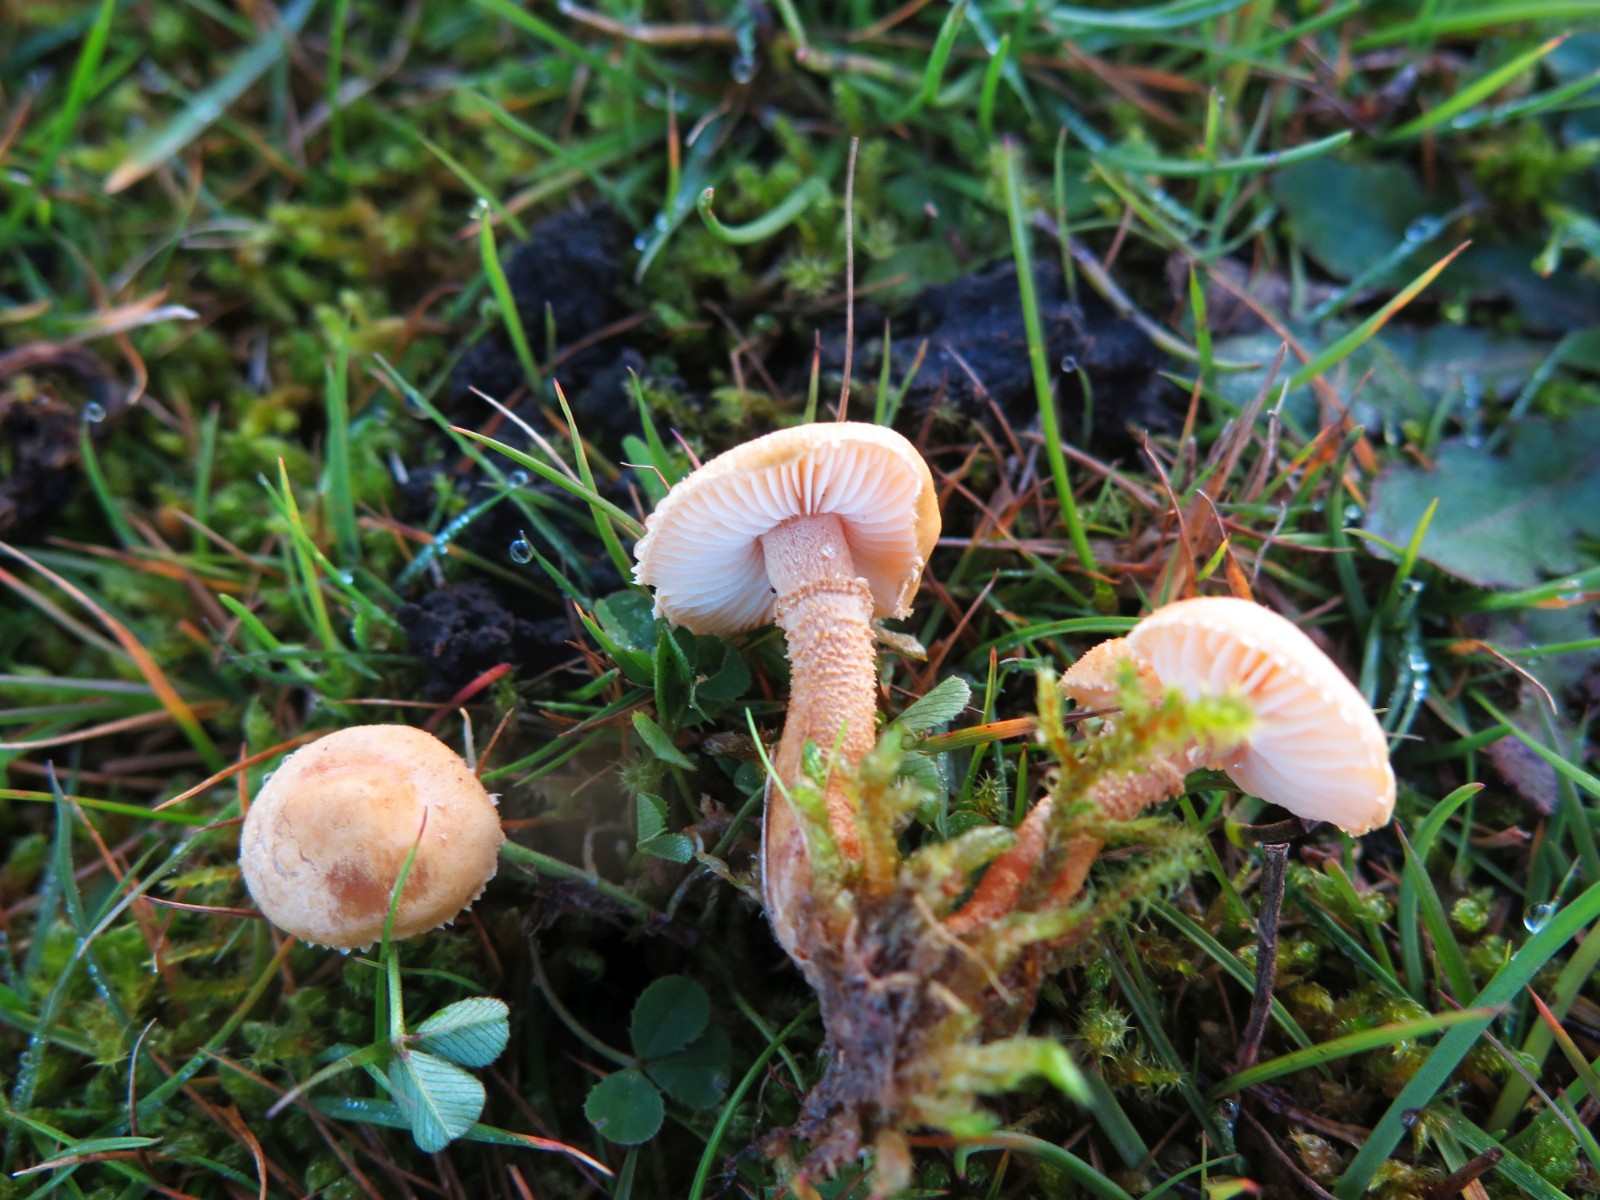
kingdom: Fungi
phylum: Basidiomycota
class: Agaricomycetes
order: Agaricales
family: Tricholomataceae
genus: Cystoderma
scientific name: Cystoderma amianthinum
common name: okkergul grynhat
